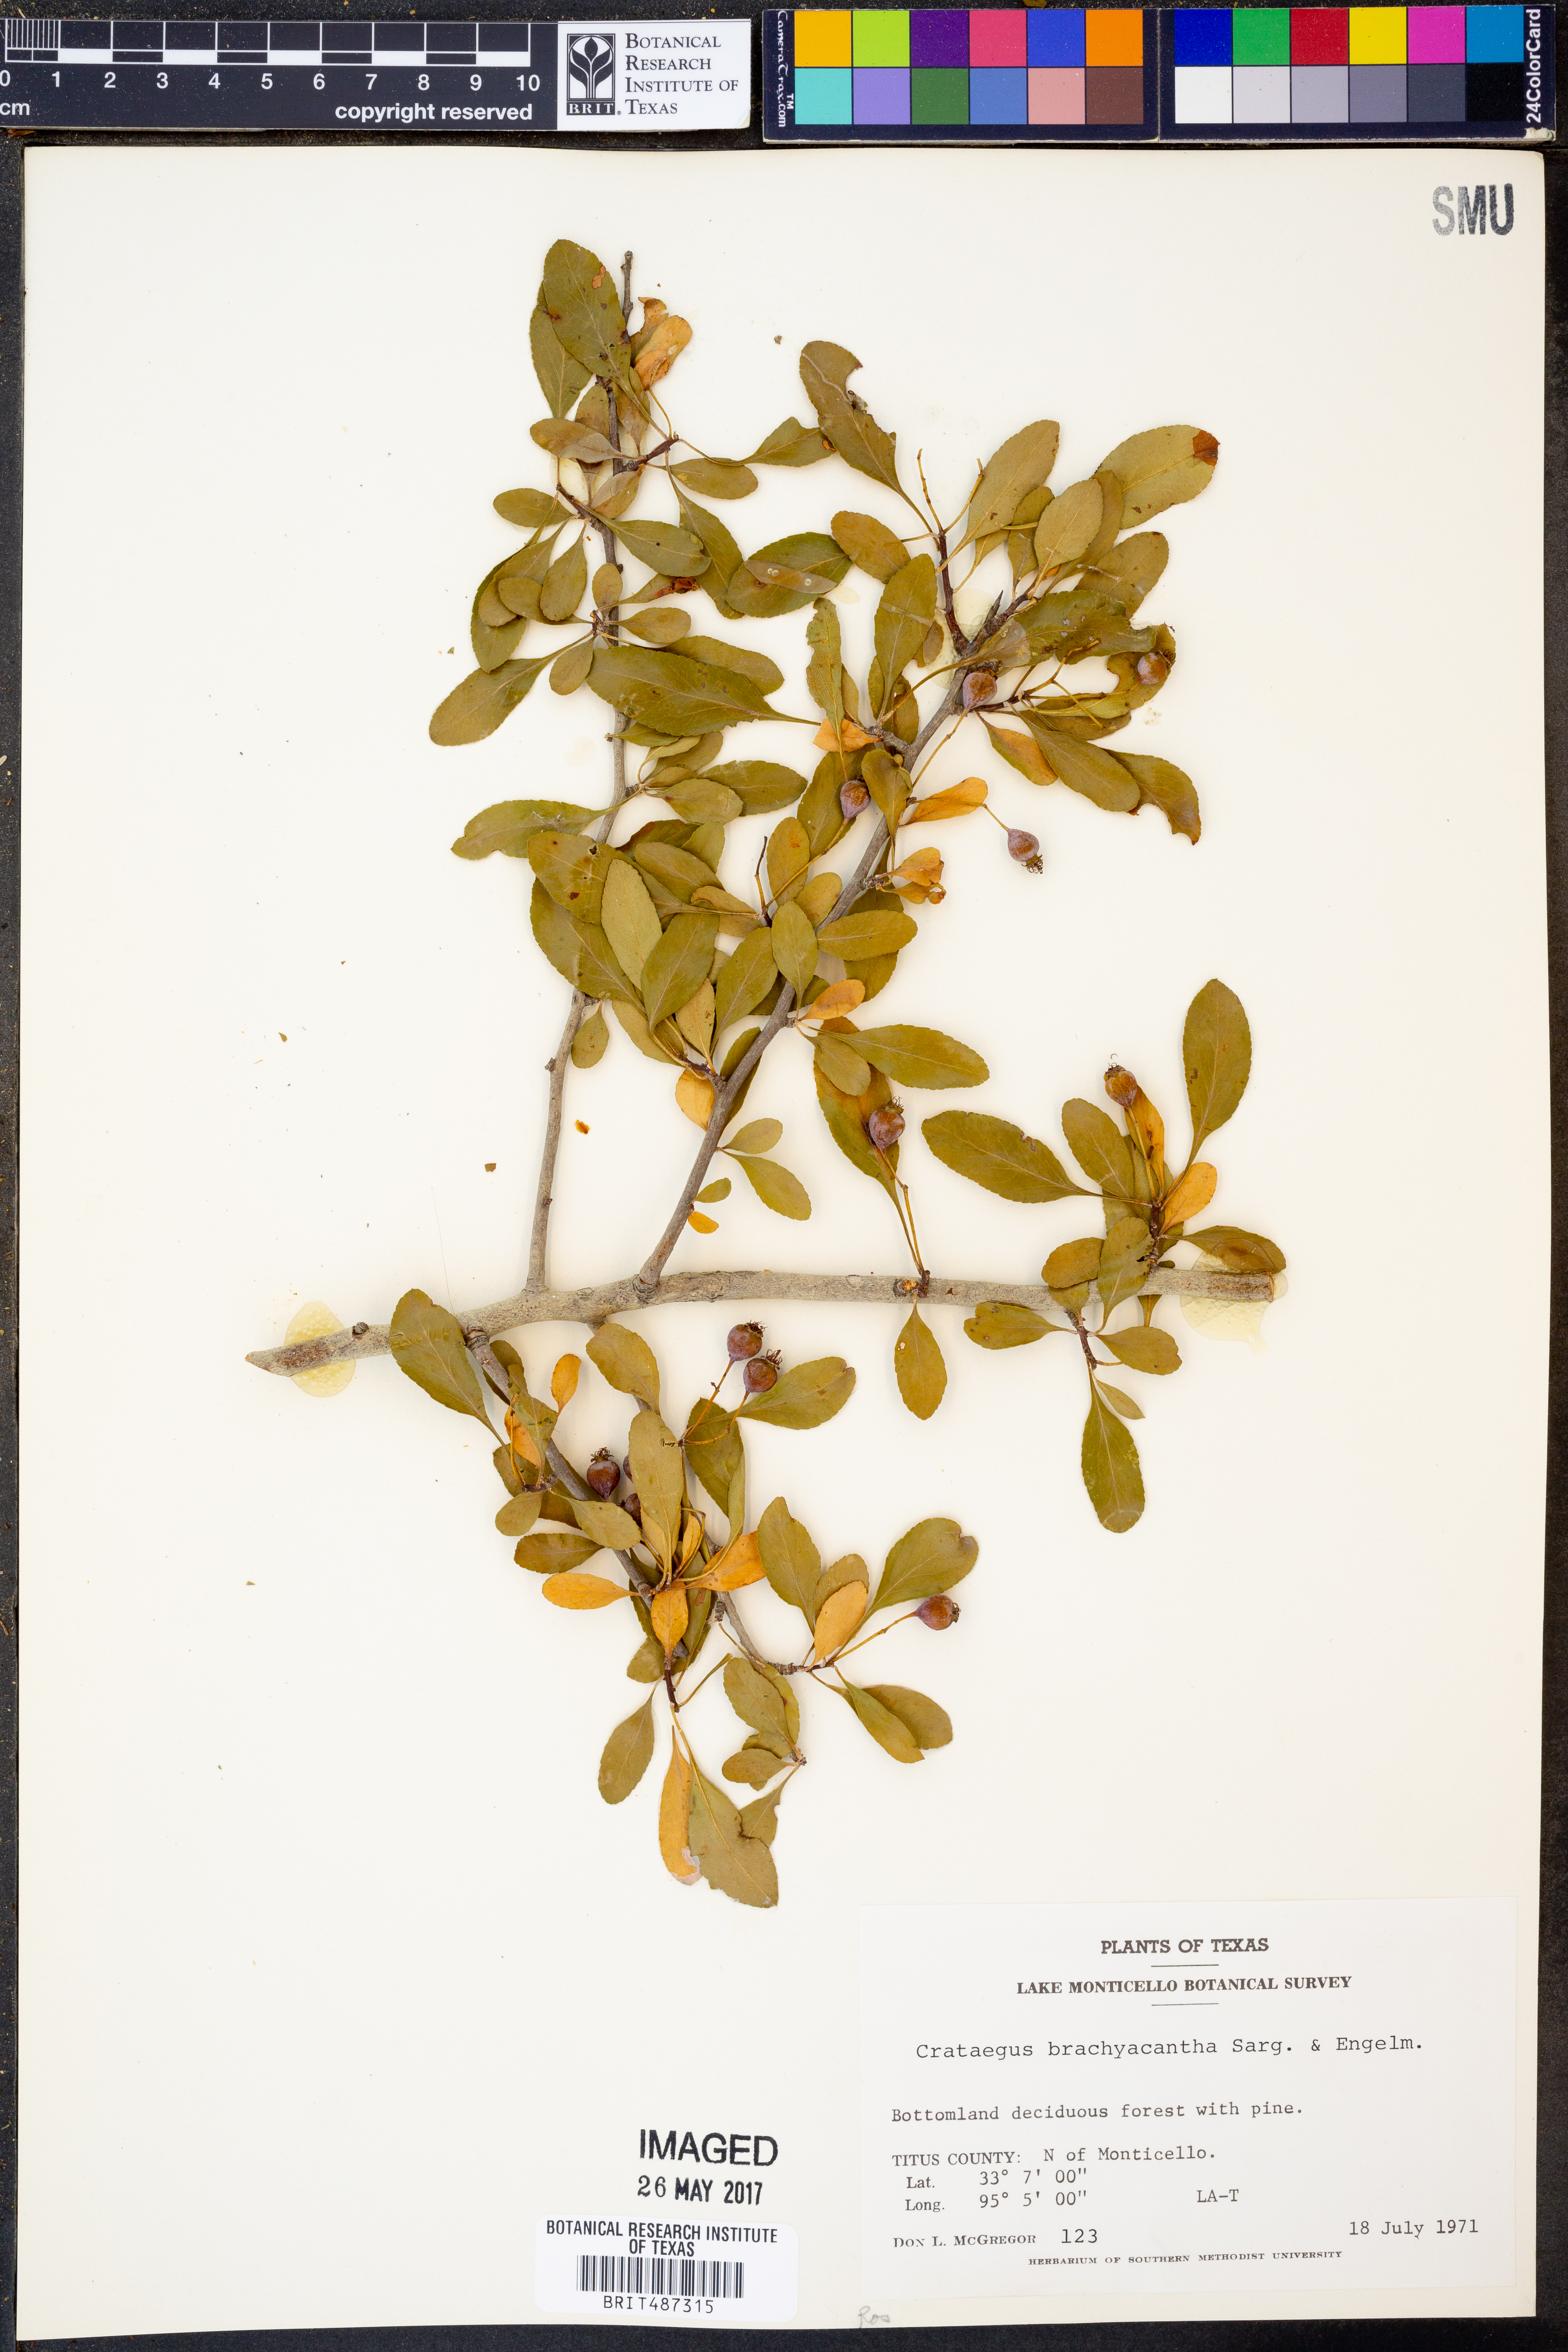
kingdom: Plantae
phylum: Tracheophyta
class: Magnoliopsida
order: Rosales
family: Rosaceae
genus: Crataegus
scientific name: Crataegus brachyacantha
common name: Blueberry-hawthorn
